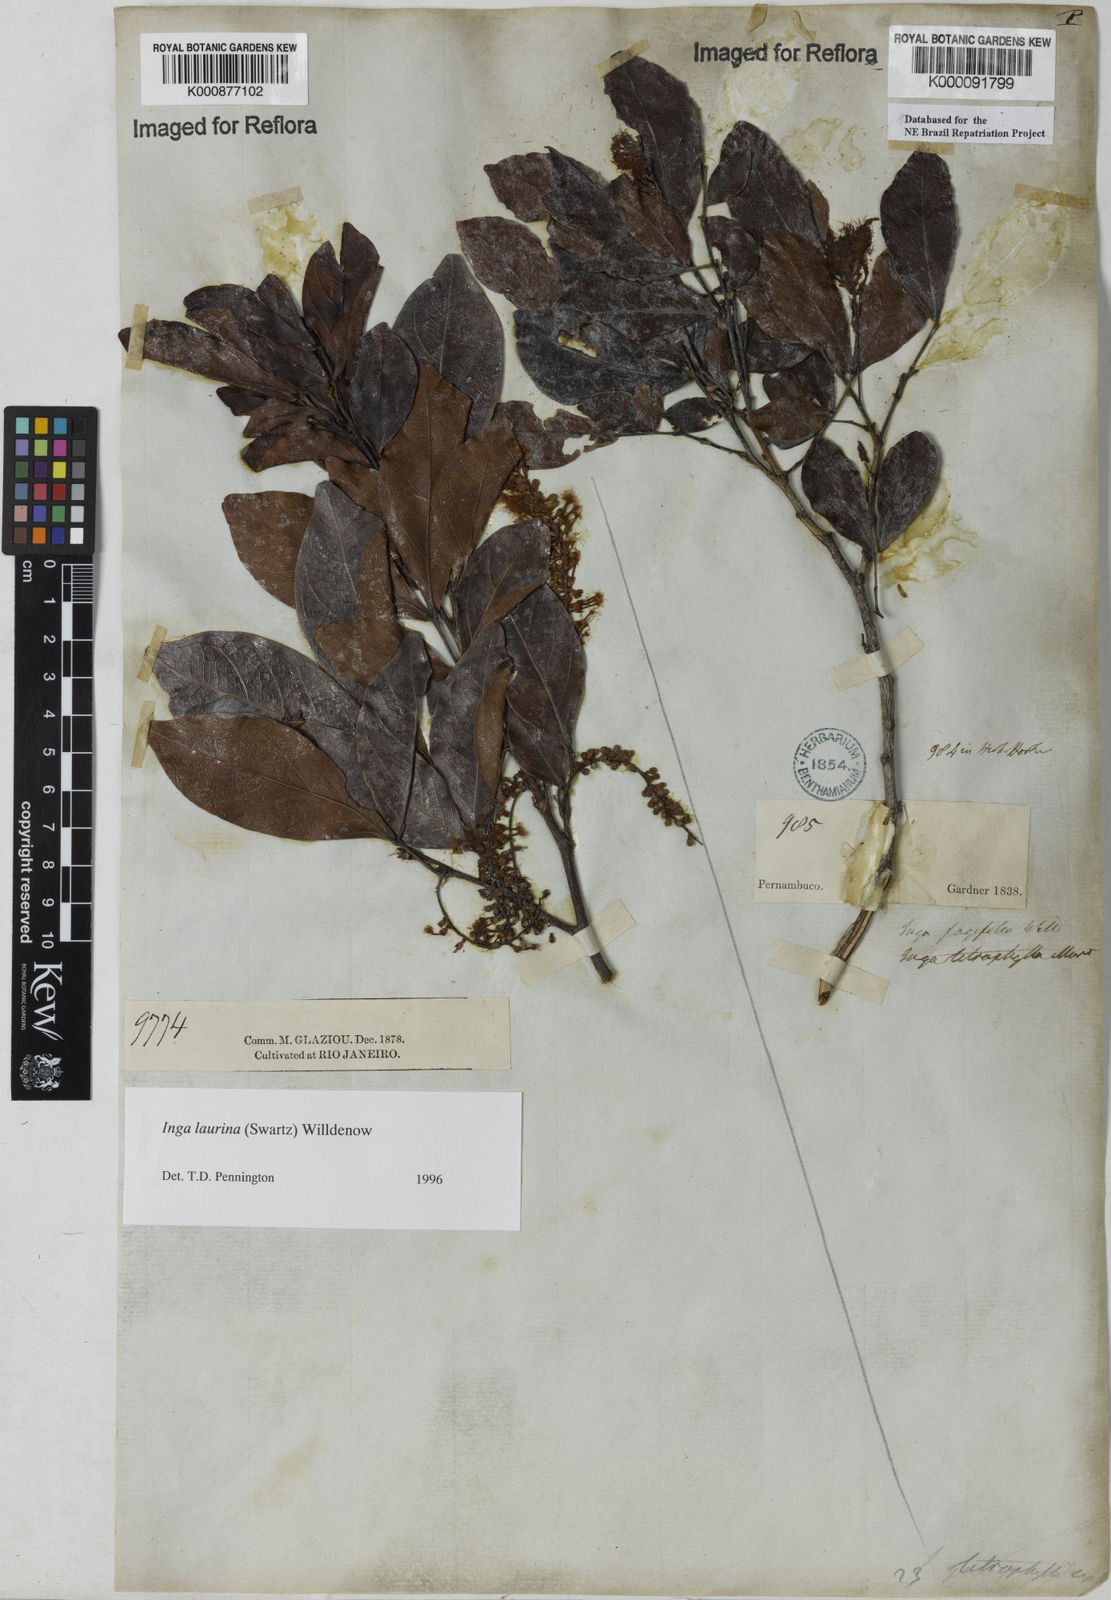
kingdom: Plantae
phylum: Tracheophyta
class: Magnoliopsida
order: Fabales
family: Fabaceae
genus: Inga
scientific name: Inga laurina
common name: Red wood
